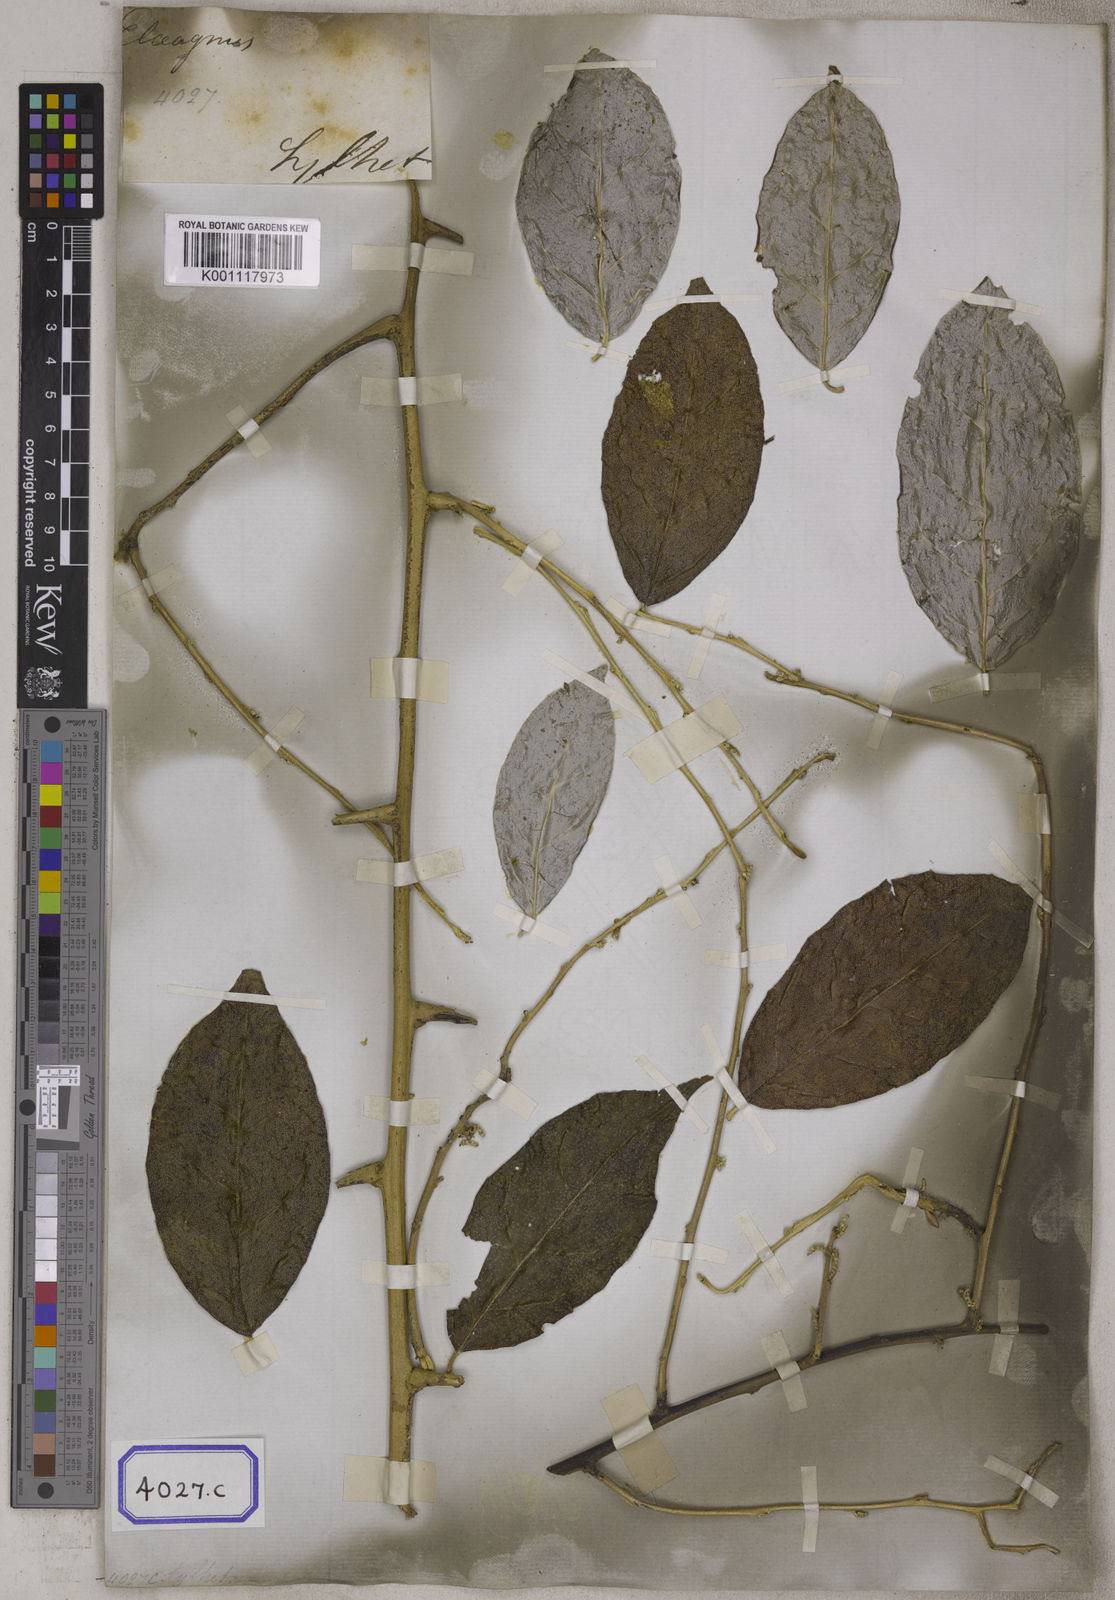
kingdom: Plantae
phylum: Tracheophyta
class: Magnoliopsida
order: Rosales
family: Elaeagnaceae
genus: Elaeagnus
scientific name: Elaeagnus conferta
